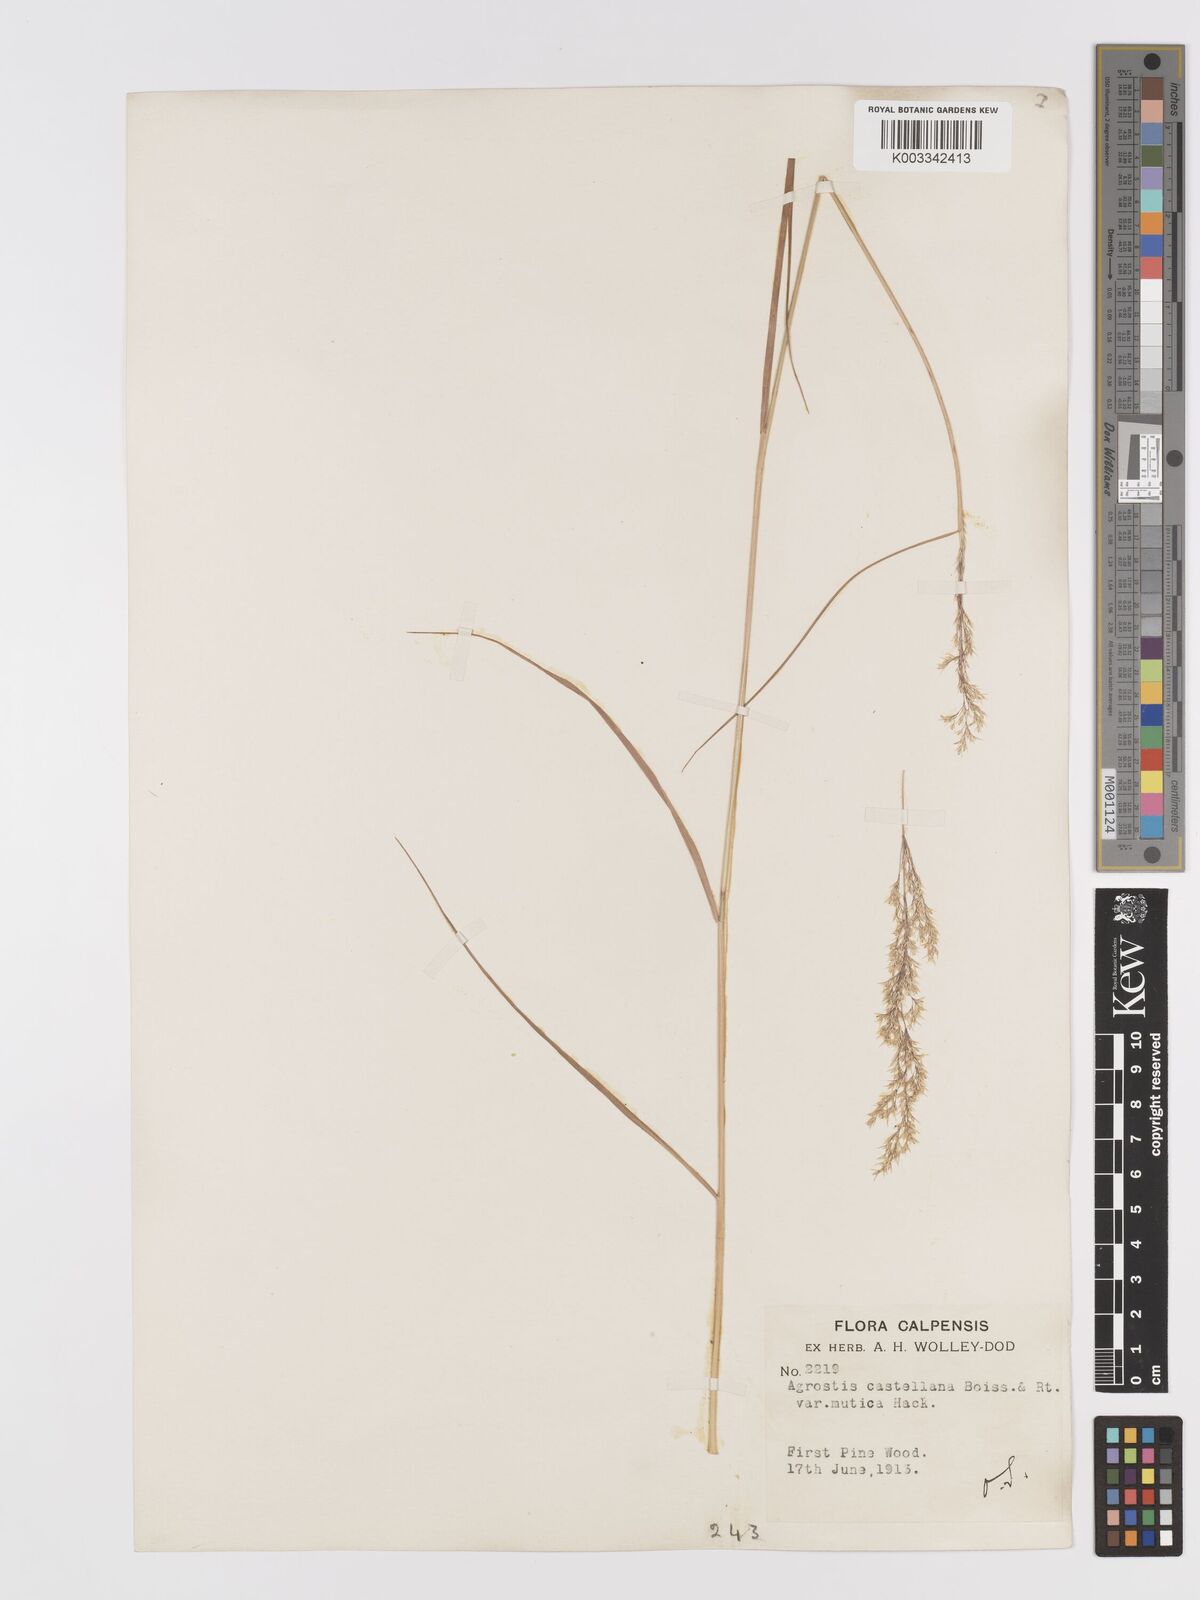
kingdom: Plantae
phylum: Tracheophyta
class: Liliopsida
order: Poales
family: Poaceae
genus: Agrostis
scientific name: Agrostis castellana
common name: Highland bent
